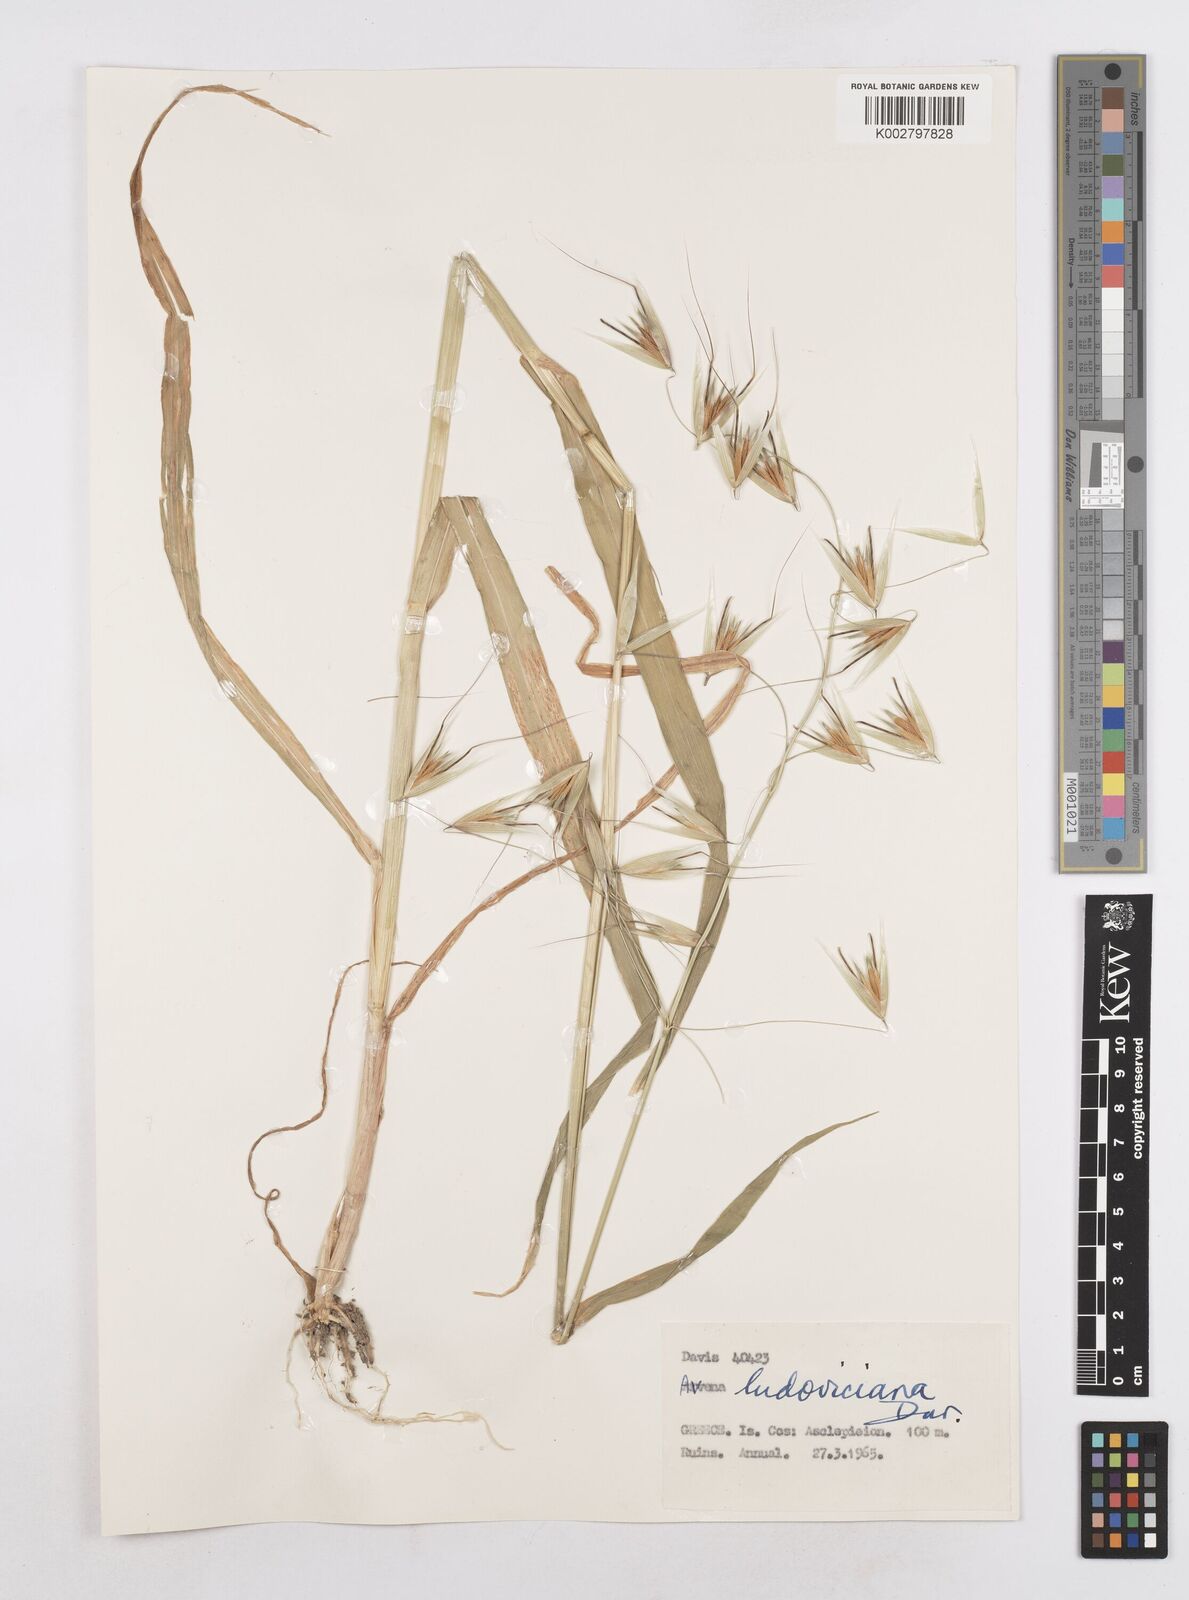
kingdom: Plantae
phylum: Tracheophyta
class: Liliopsida
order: Poales
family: Poaceae
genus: Avena
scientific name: Avena sterilis
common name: Animated oat
